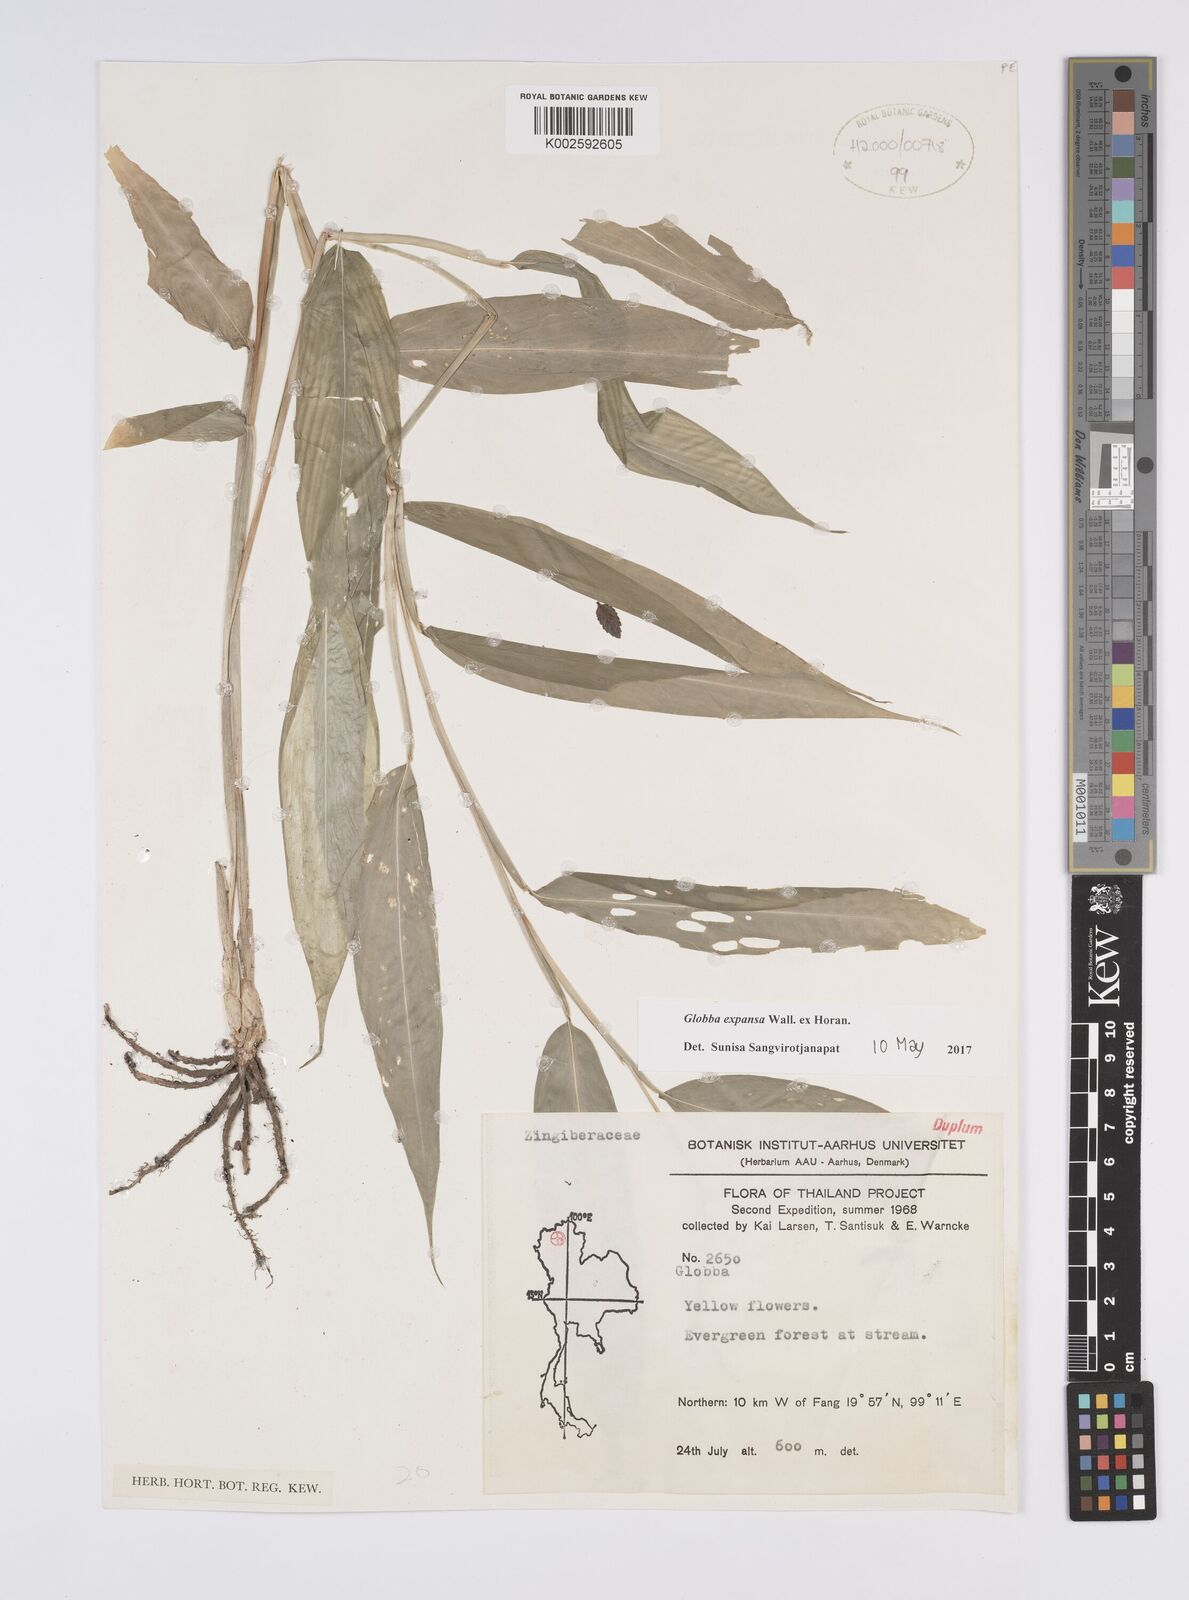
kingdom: Plantae
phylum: Tracheophyta
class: Liliopsida
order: Zingiberales
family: Zingiberaceae
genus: Globba
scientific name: Globba expansa
